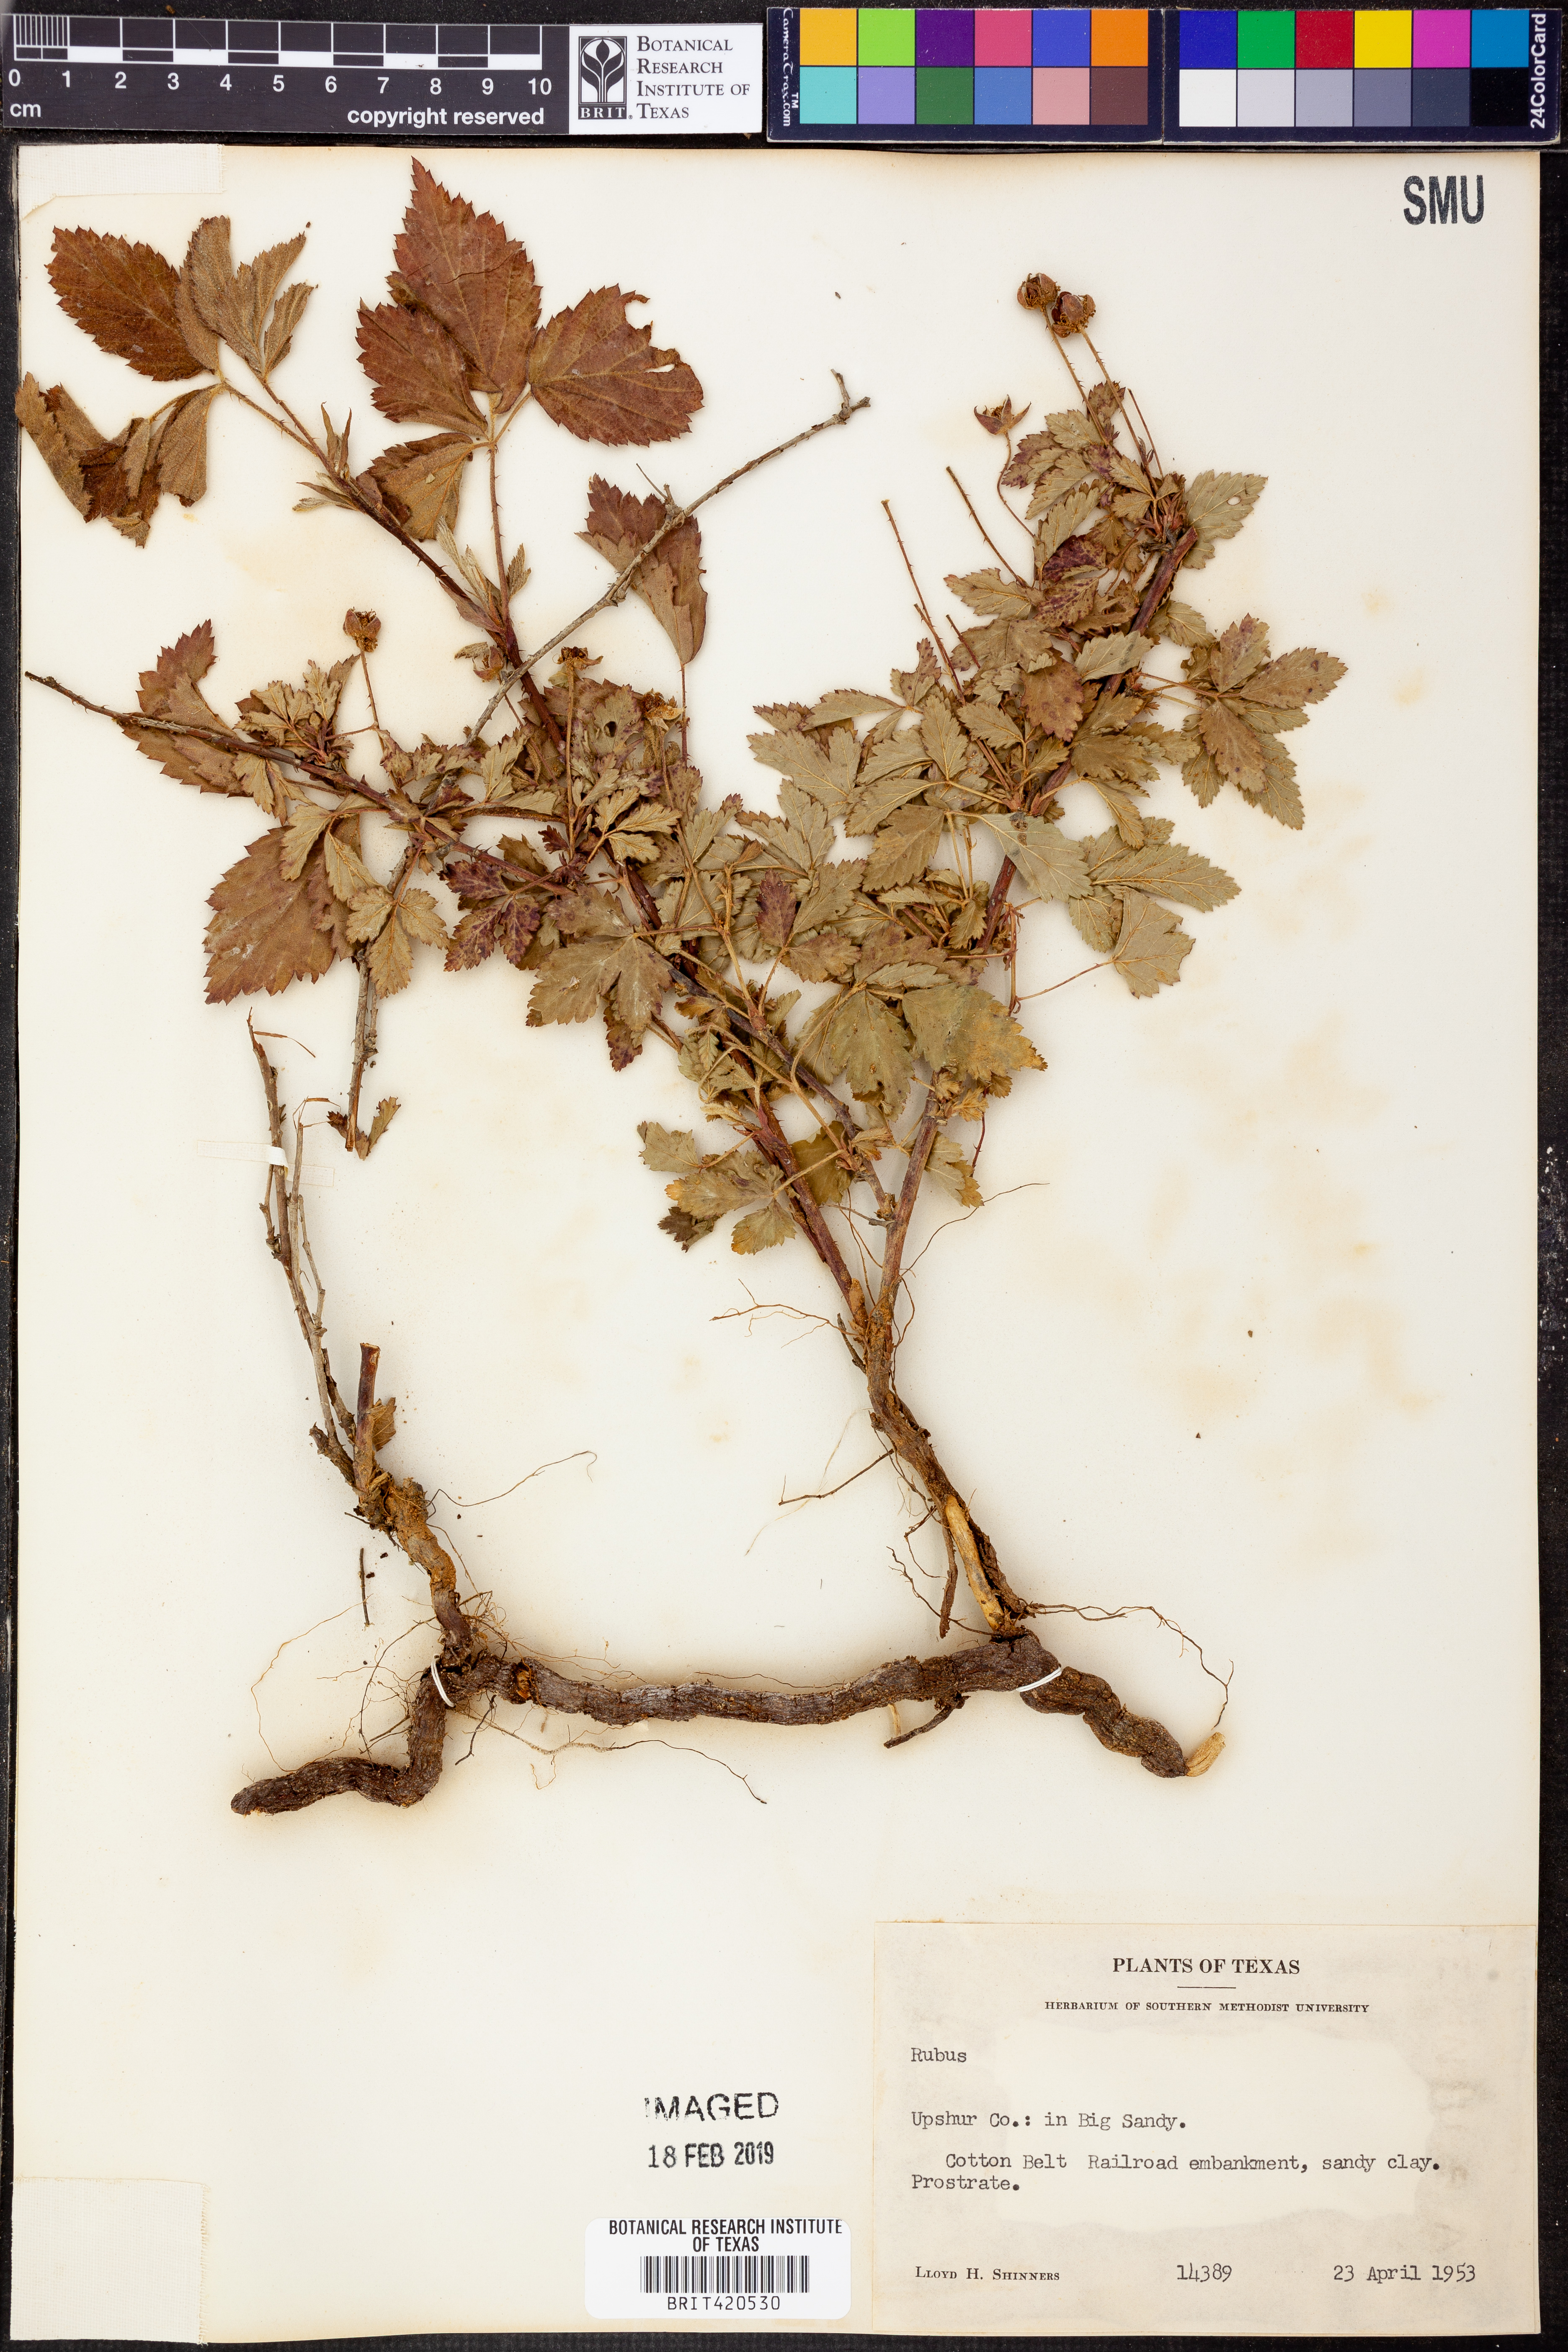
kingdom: Plantae
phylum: Tracheophyta
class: Magnoliopsida
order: Rosales
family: Rosaceae
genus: Rubus
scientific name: Rubus
